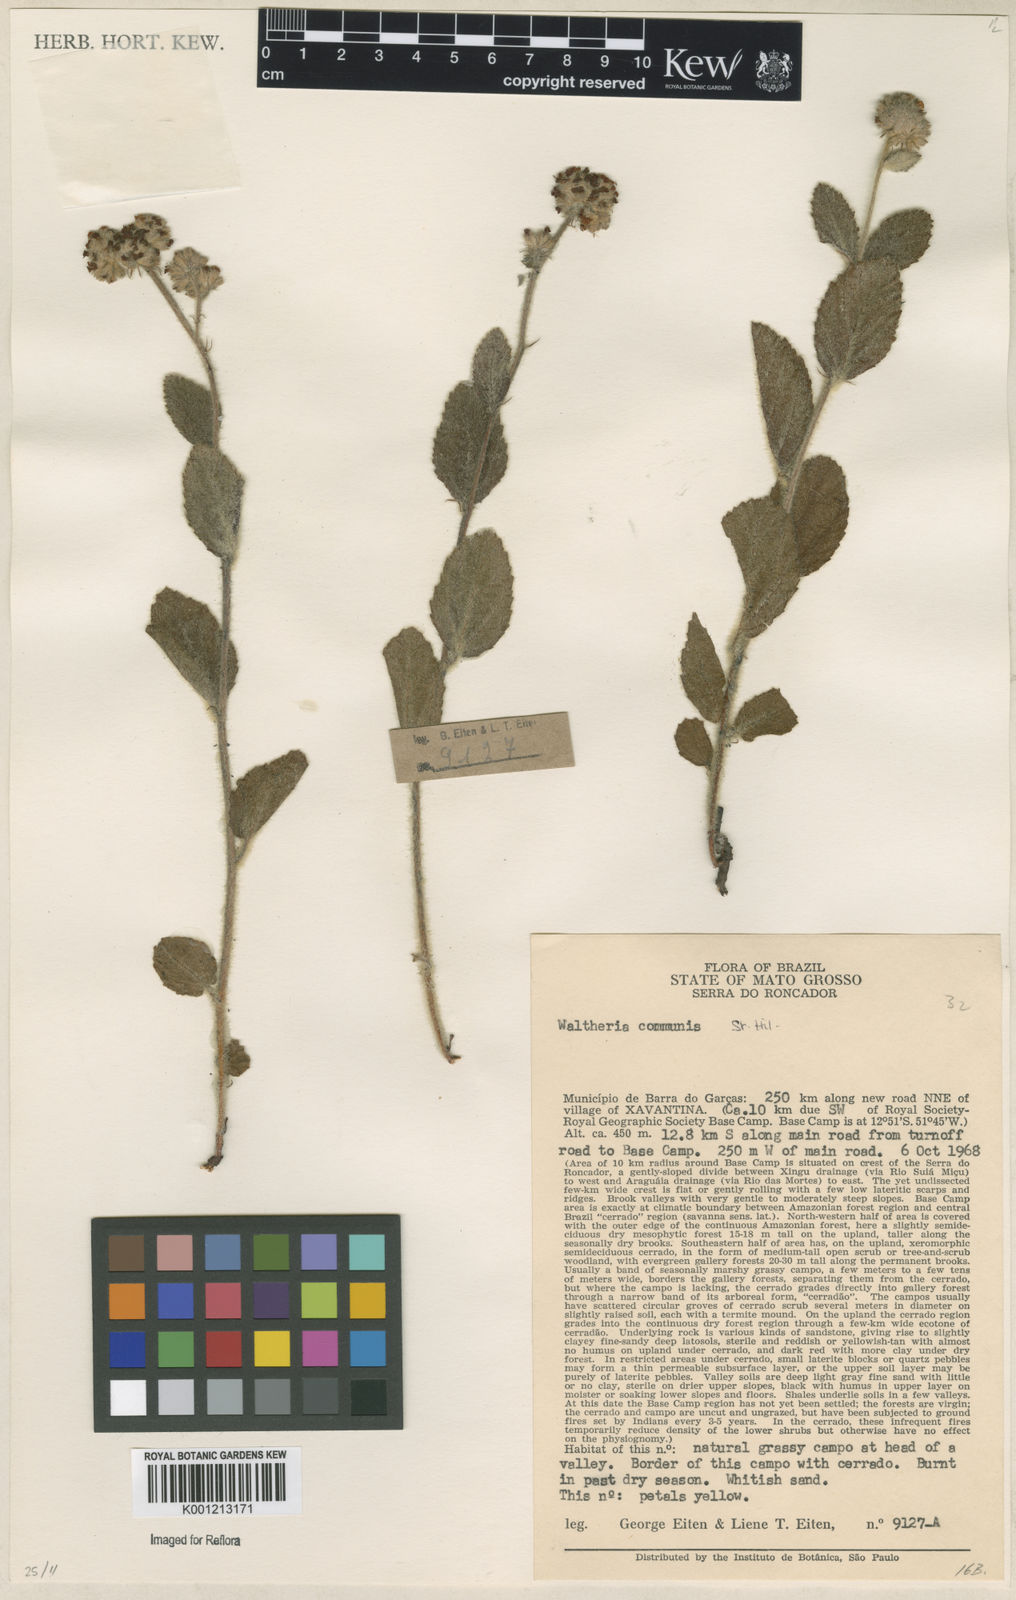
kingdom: Plantae
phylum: Tracheophyta
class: Magnoliopsida
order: Malvales
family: Malvaceae
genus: Waltheria
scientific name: Waltheria communis
